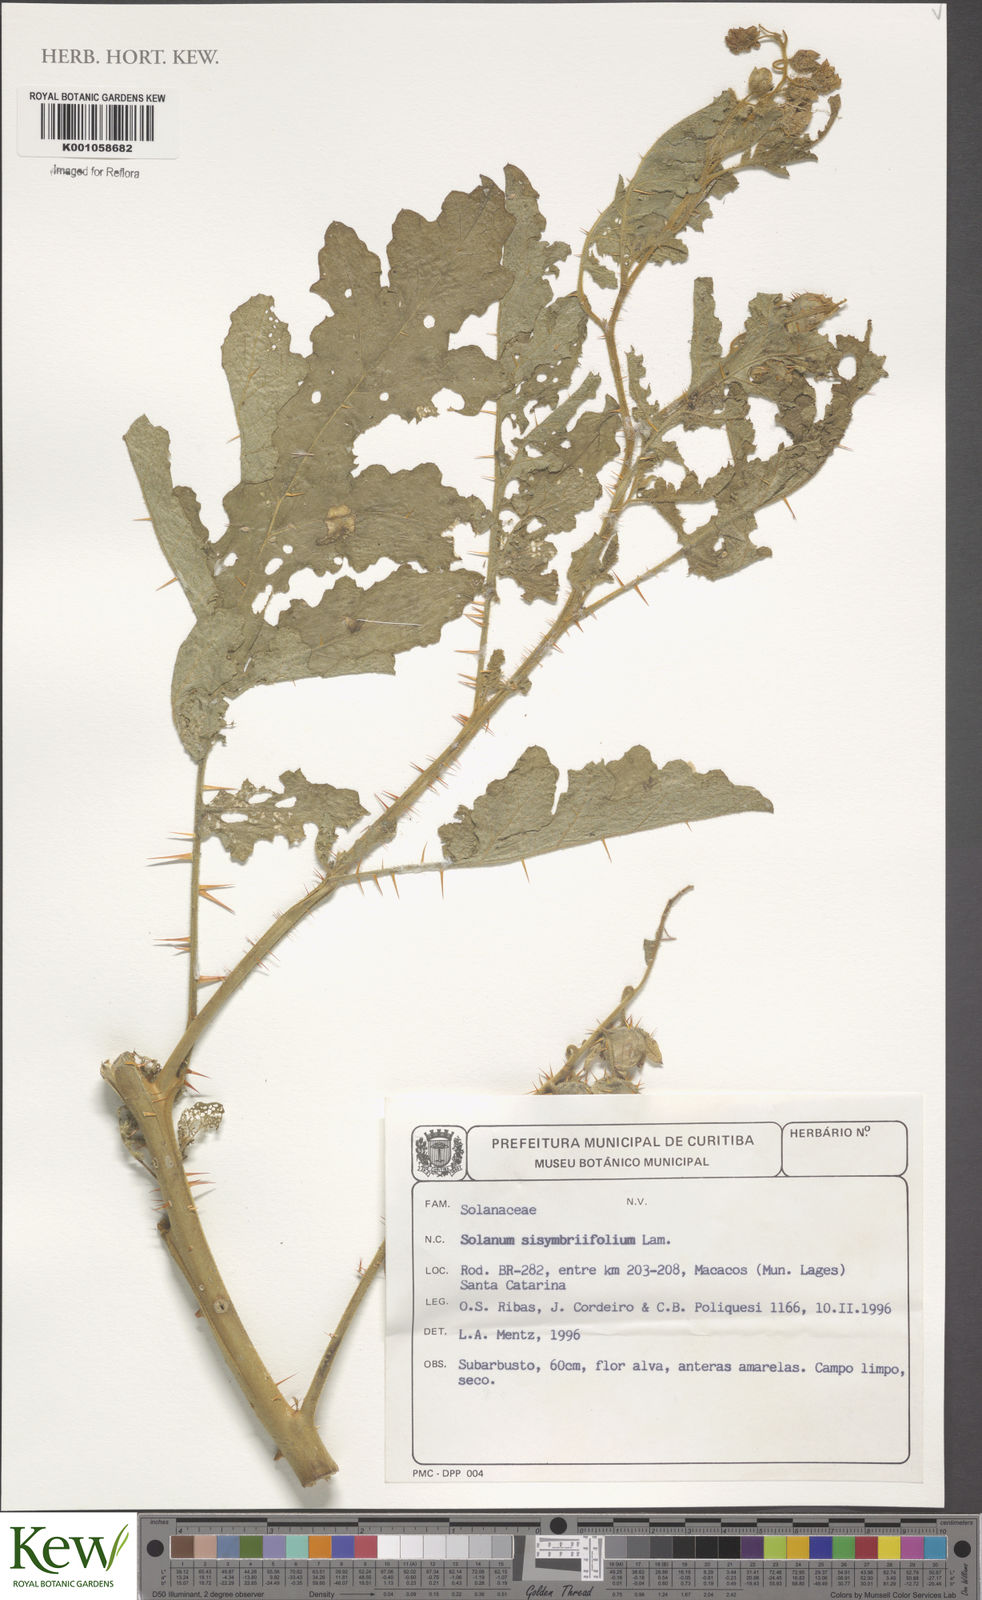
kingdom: Plantae
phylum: Tracheophyta
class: Magnoliopsida
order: Solanales
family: Solanaceae
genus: Solanum
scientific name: Solanum sisymbriifolium
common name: Red buffalo-bur
